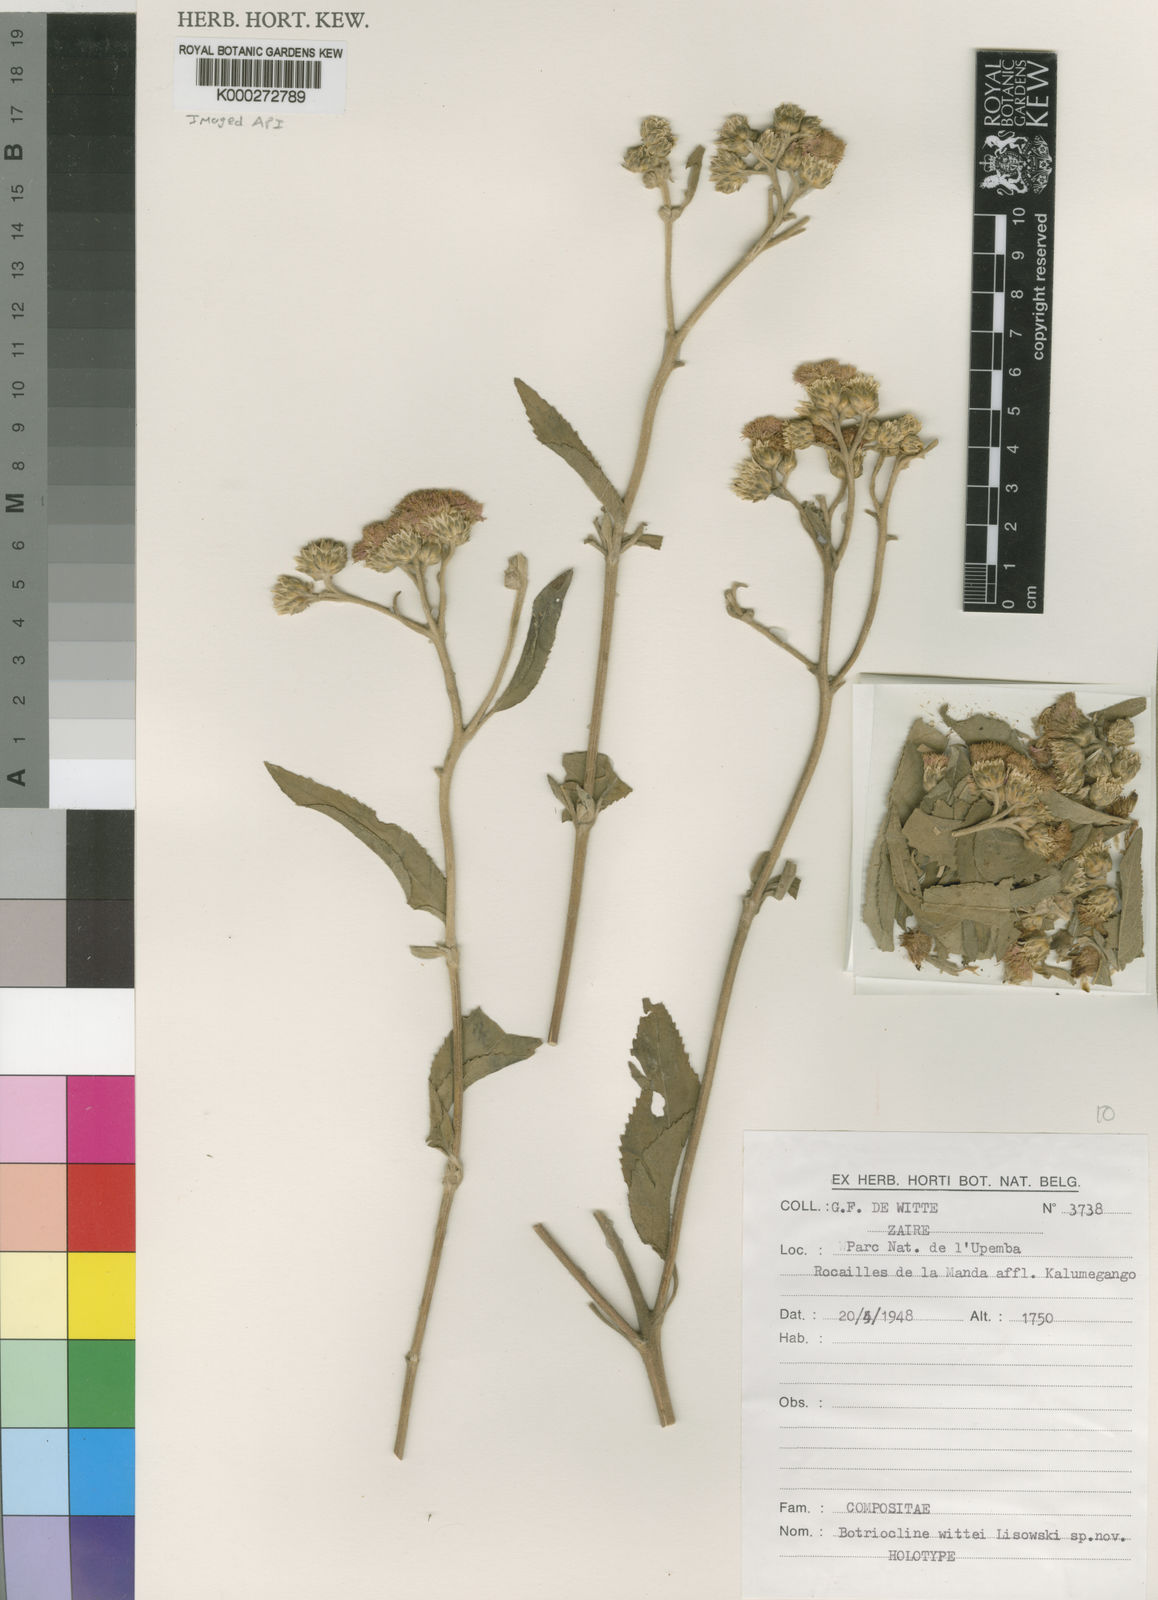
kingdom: Plantae
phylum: Tracheophyta
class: Magnoliopsida
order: Asterales
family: Asteraceae
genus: Bothriocline
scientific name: Bothriocline wittei
